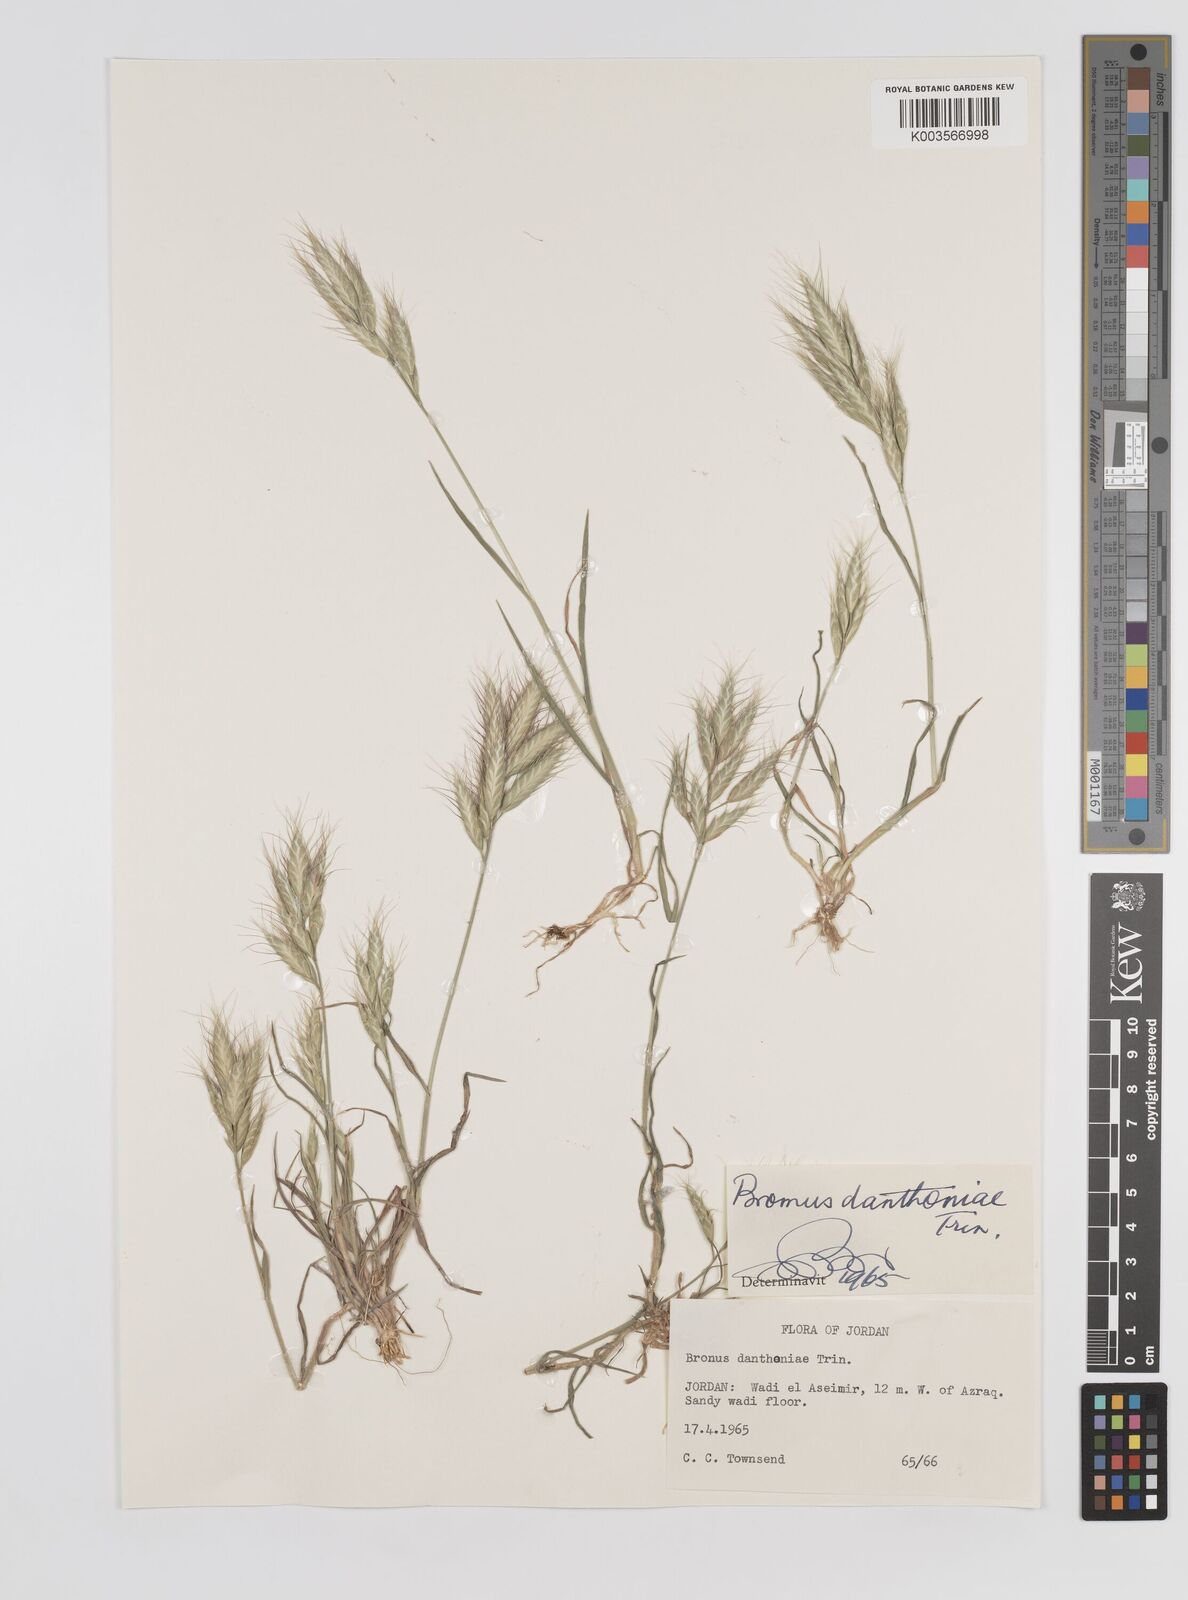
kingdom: Plantae
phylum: Tracheophyta
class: Liliopsida
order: Poales
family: Poaceae
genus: Bromus
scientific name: Bromus danthoniae
